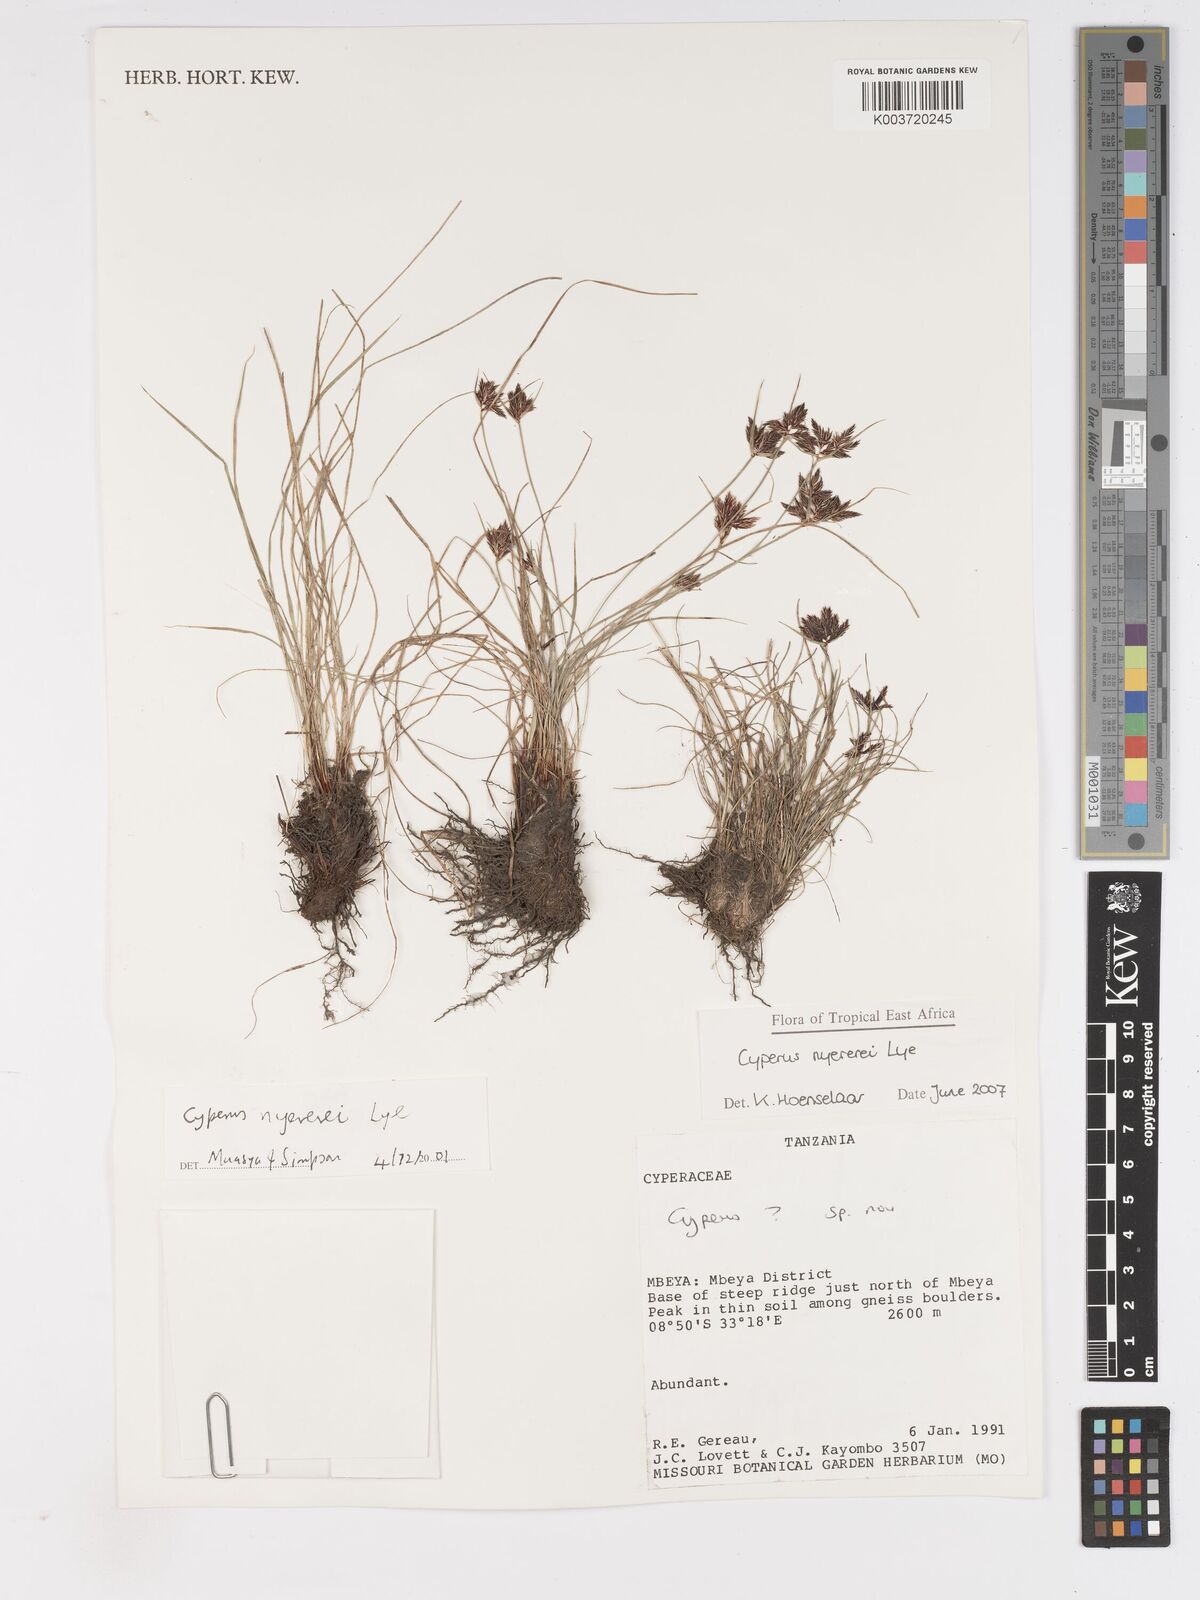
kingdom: Plantae
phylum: Tracheophyta
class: Liliopsida
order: Poales
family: Cyperaceae
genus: Cyperus
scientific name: Cyperus nyererei
